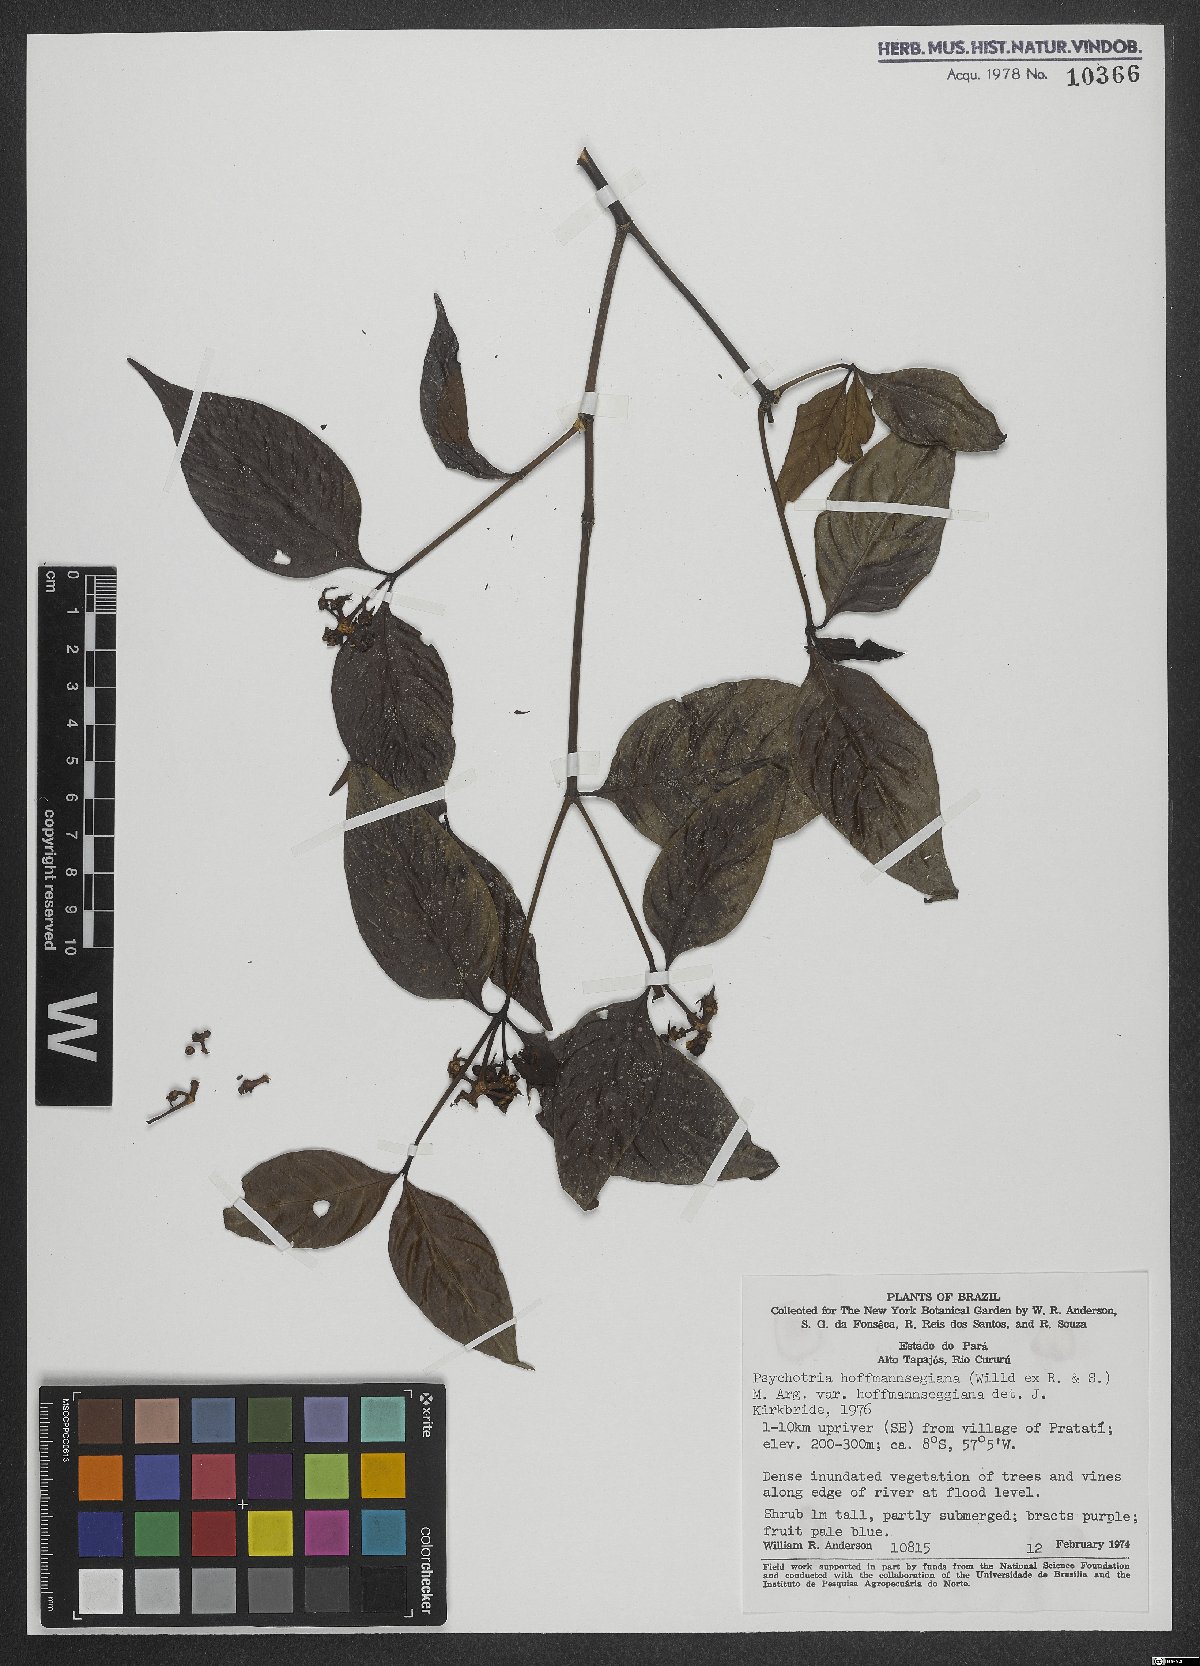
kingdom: Plantae
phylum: Tracheophyta
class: Magnoliopsida
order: Gentianales
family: Rubiaceae
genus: Palicourea
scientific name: Palicourea hoffmannseggiana
